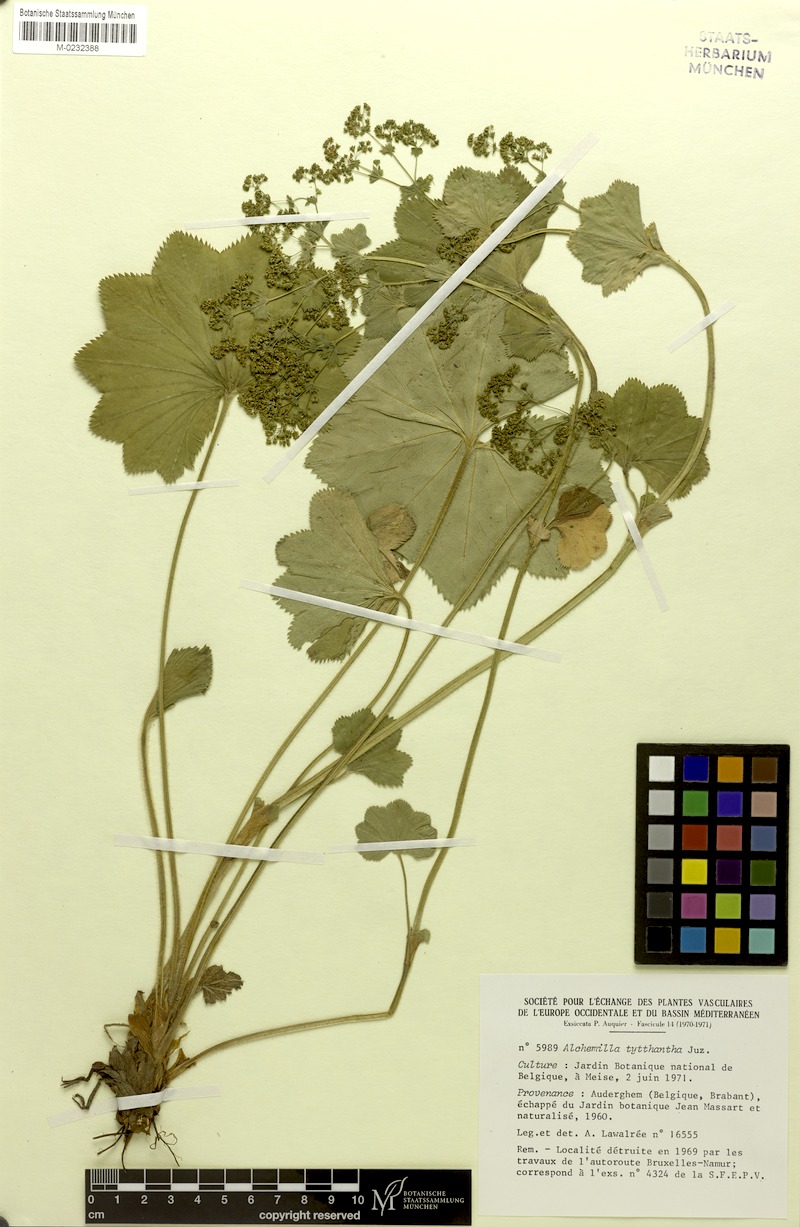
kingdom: Plantae
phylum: Tracheophyta
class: Magnoliopsida
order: Rosales
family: Rosaceae
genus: Alchemilla
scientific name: Alchemilla tytthantha
